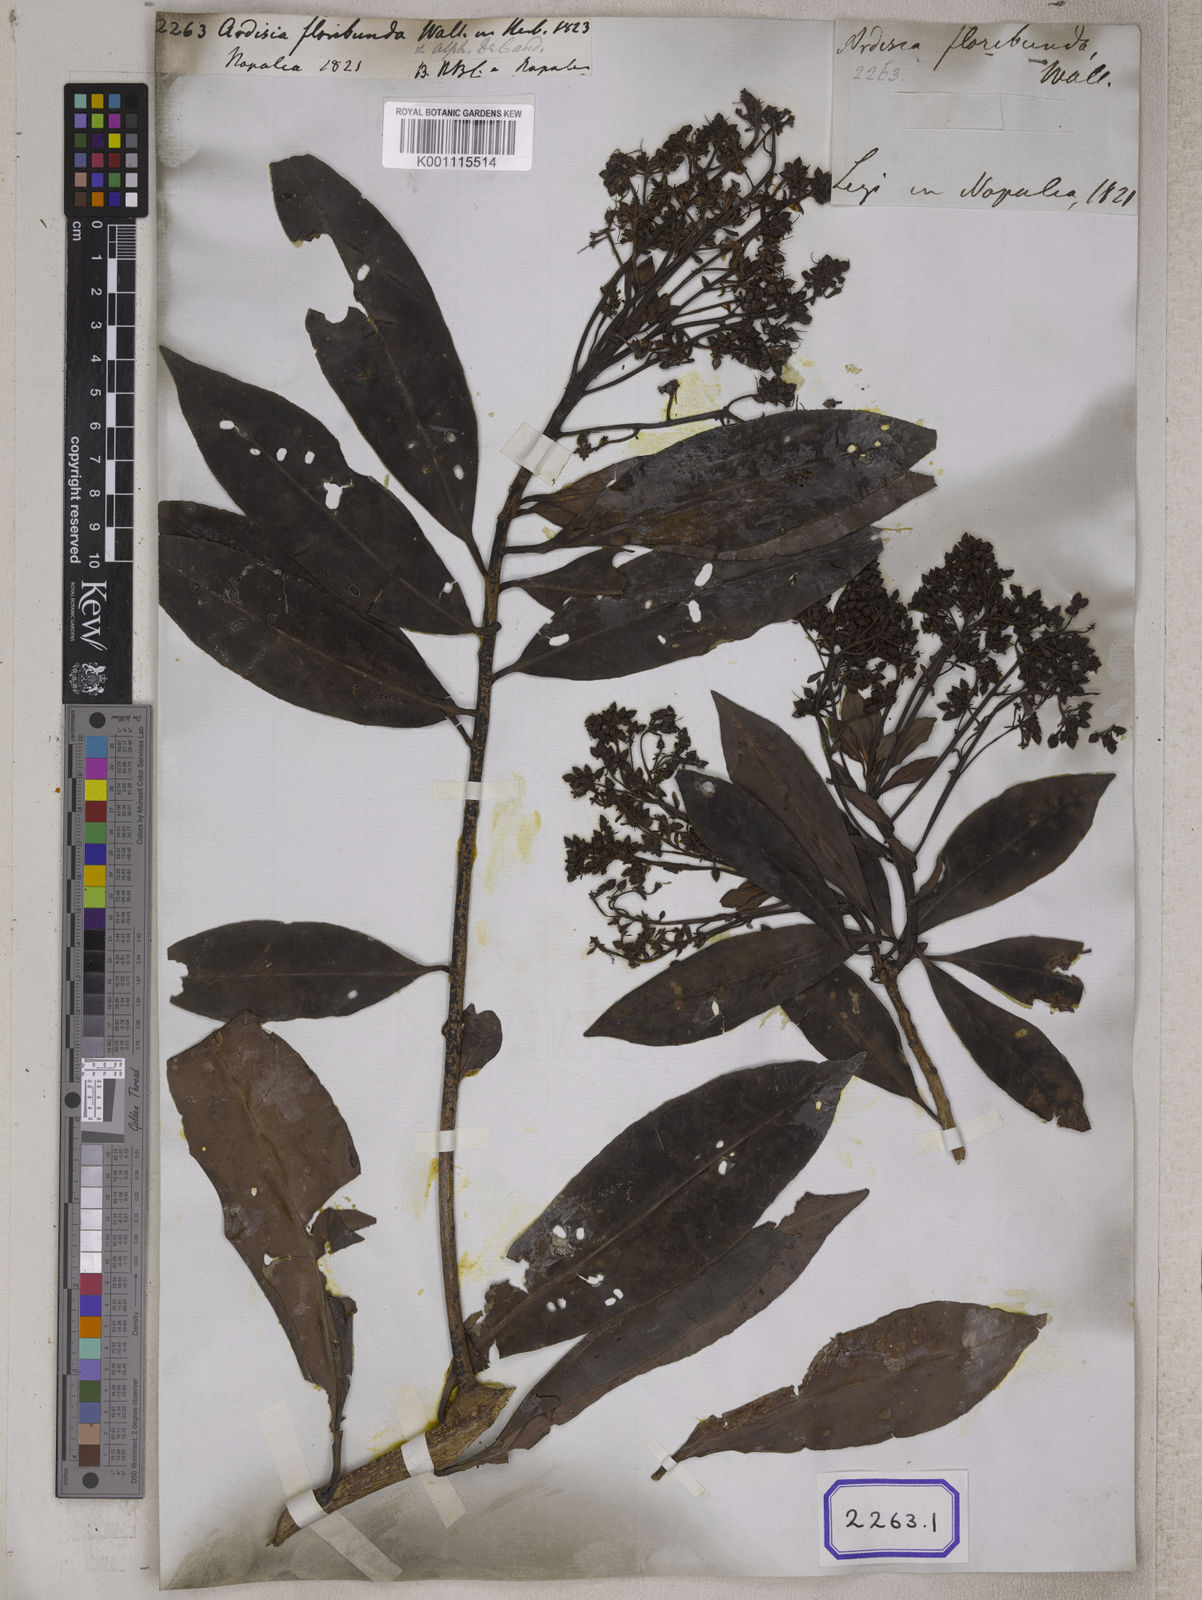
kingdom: Plantae
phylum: Tracheophyta
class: Magnoliopsida
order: Ericales
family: Primulaceae
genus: Ardisia
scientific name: Ardisia floribunda
